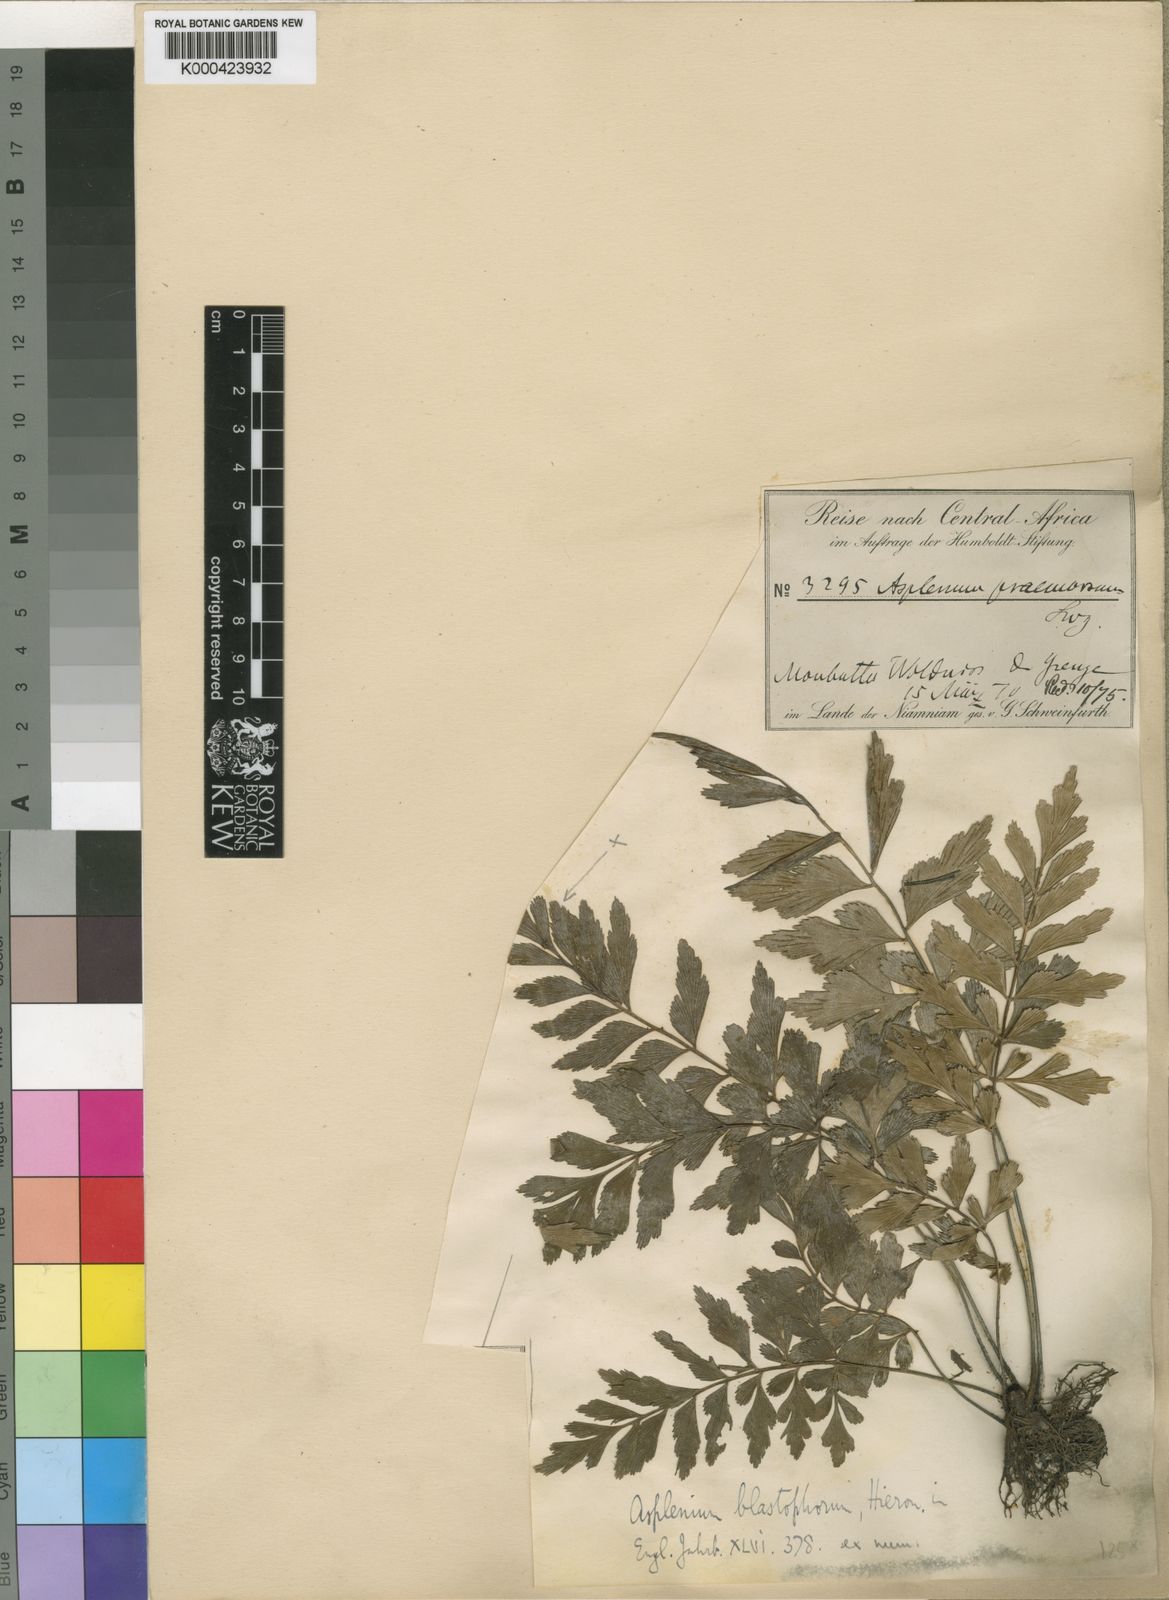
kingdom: Plantae
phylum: Tracheophyta
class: Polypodiopsida
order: Polypodiales
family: Aspleniaceae
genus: Asplenium
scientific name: Asplenium blastophorum
